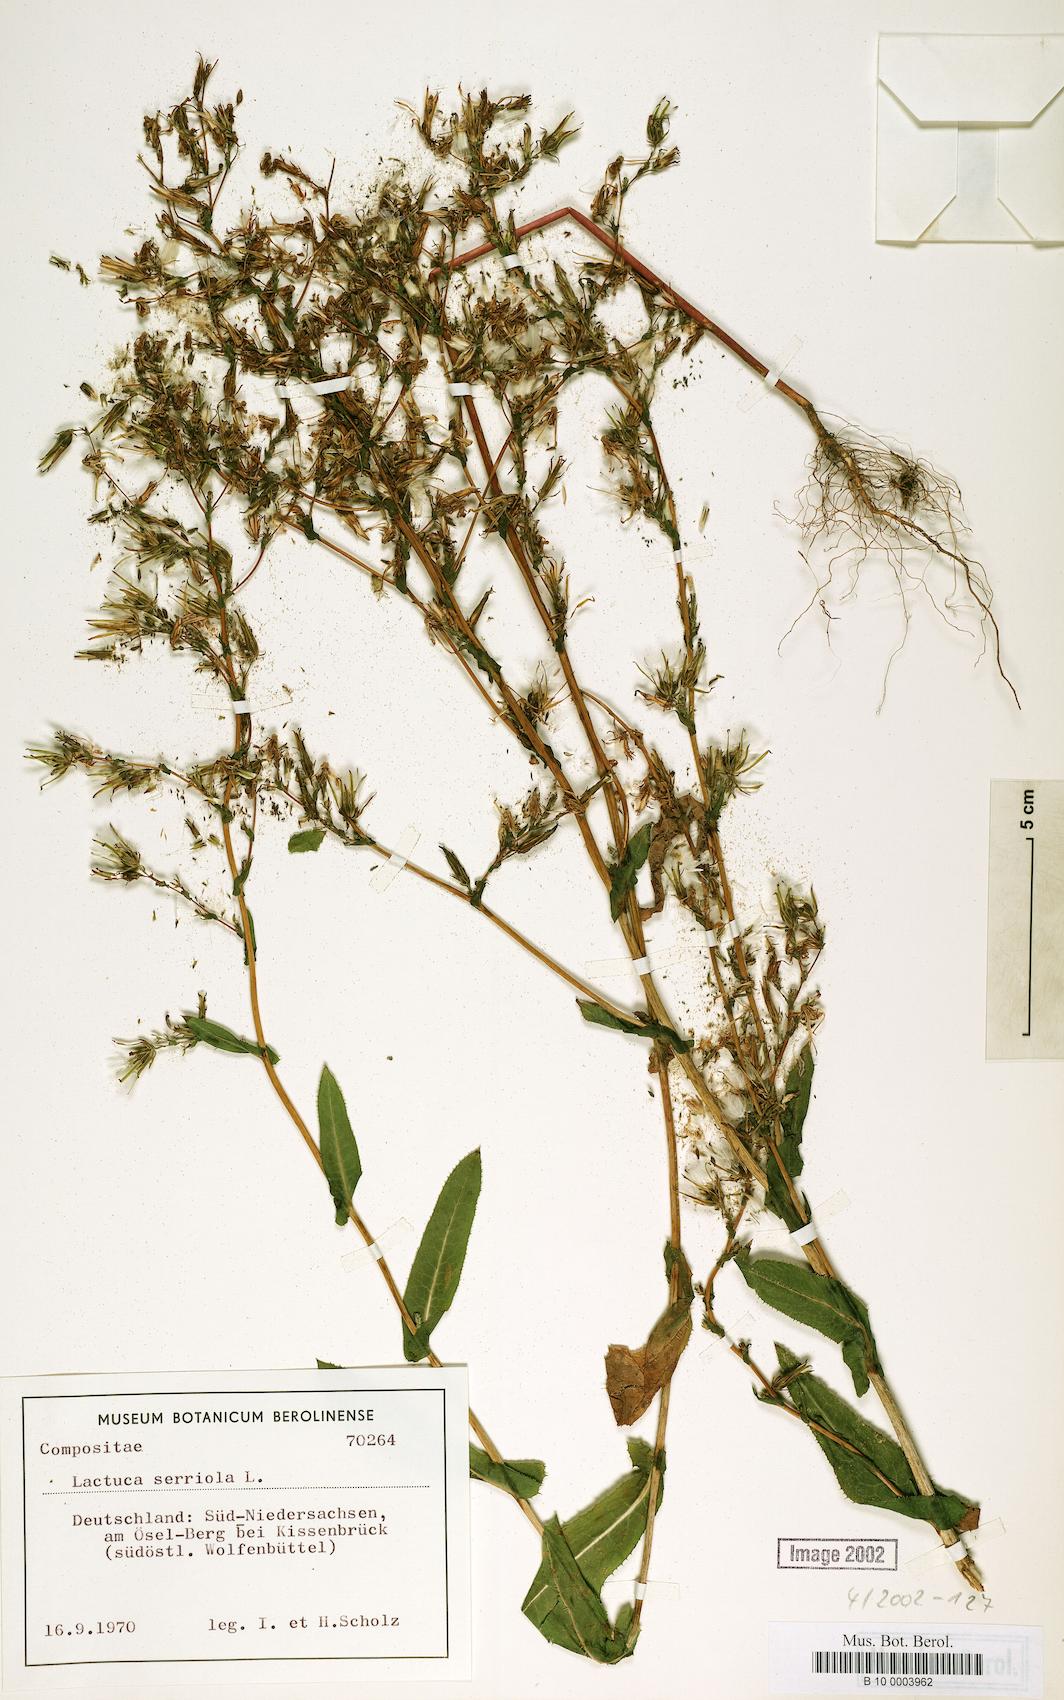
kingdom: Plantae
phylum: Tracheophyta
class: Magnoliopsida
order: Asterales
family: Asteraceae
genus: Lactuca
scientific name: Lactuca serriola
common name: Prickly lettuce
